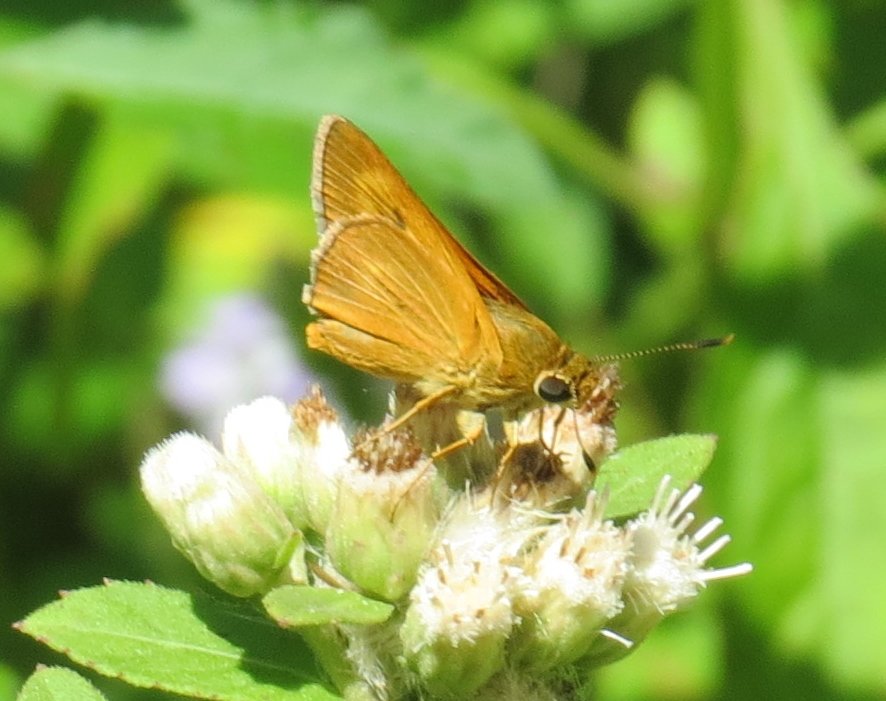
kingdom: Animalia
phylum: Arthropoda
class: Insecta
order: Lepidoptera
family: Hesperiidae
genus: Problema
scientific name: Problema byssus
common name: Byssus Skipper
